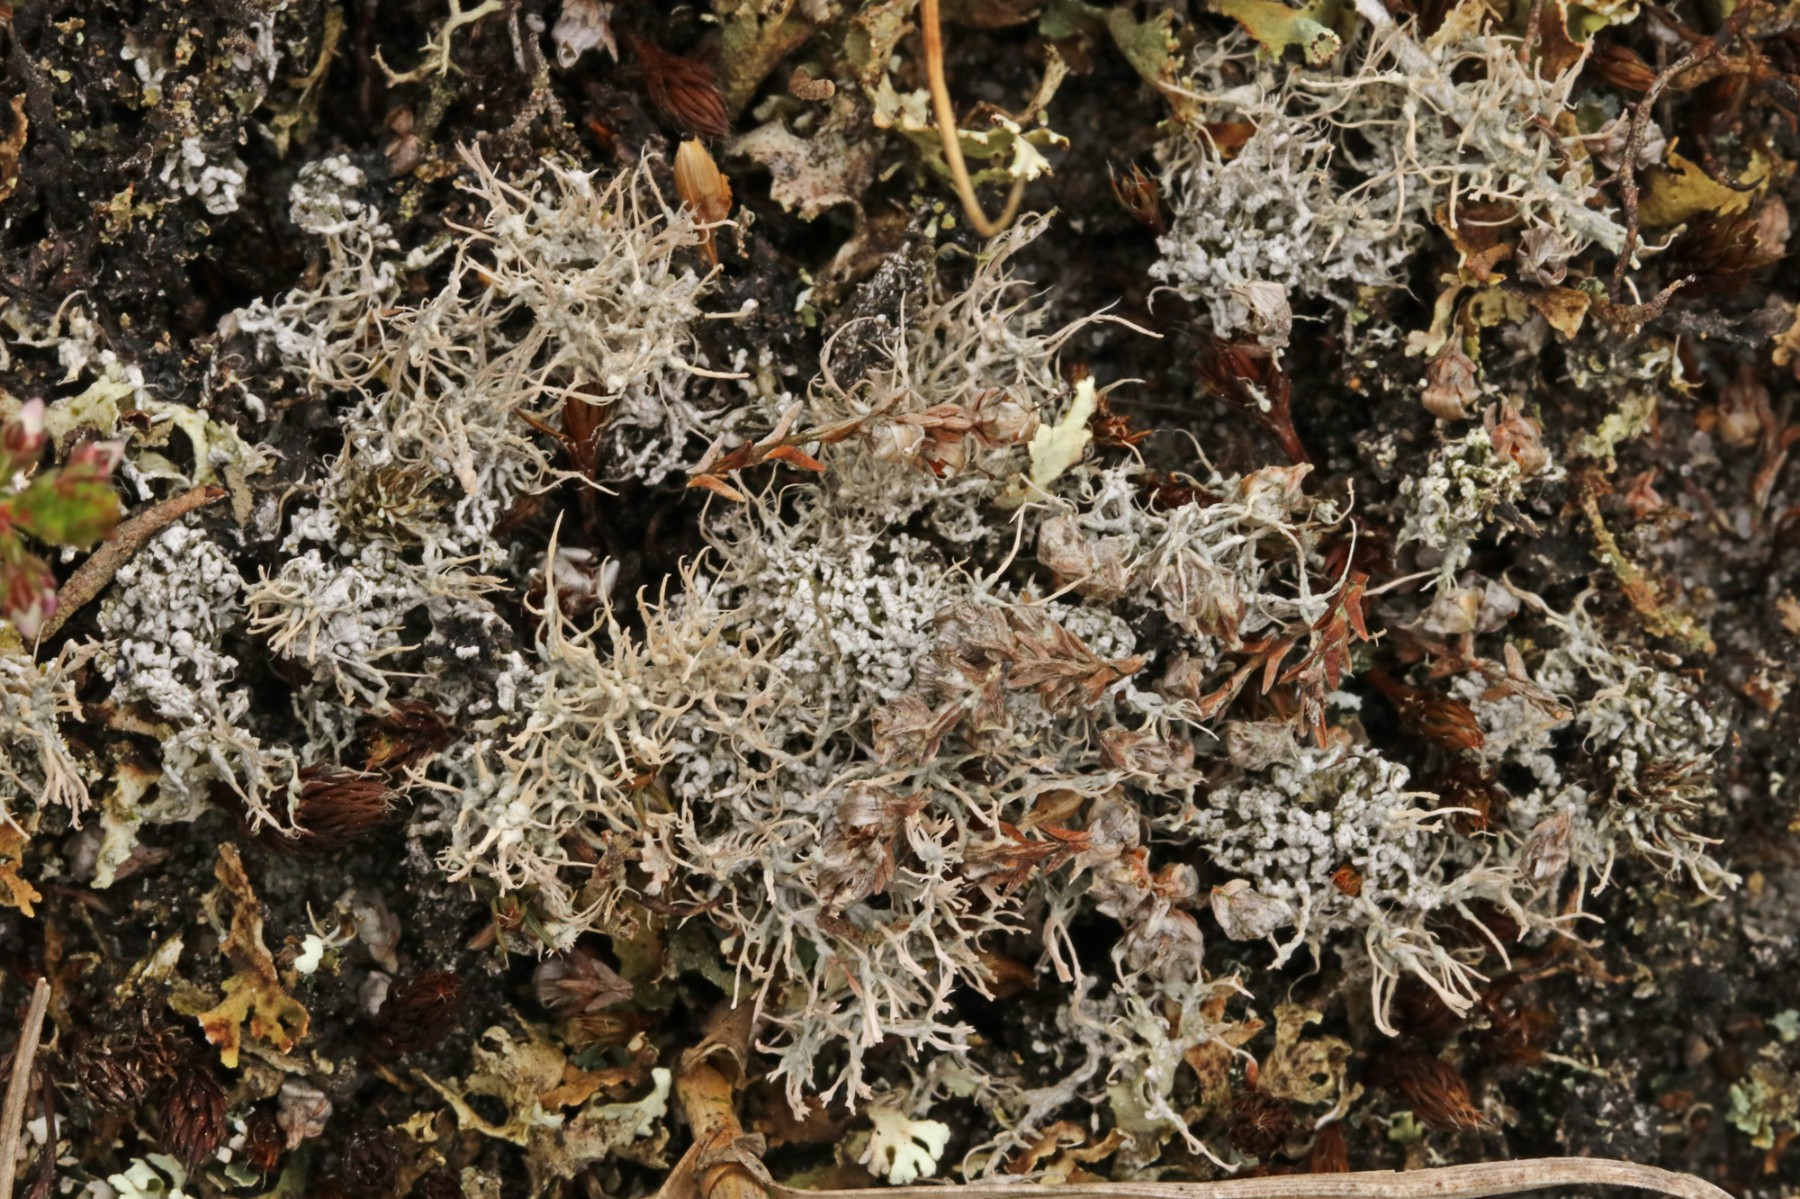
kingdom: Fungi
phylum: Ascomycota
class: Lecanoromycetes
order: Pertusariales
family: Ochrolechiaceae
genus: Ochrolechia
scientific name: Ochrolechia frigida
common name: fjeld-blegskivelav
